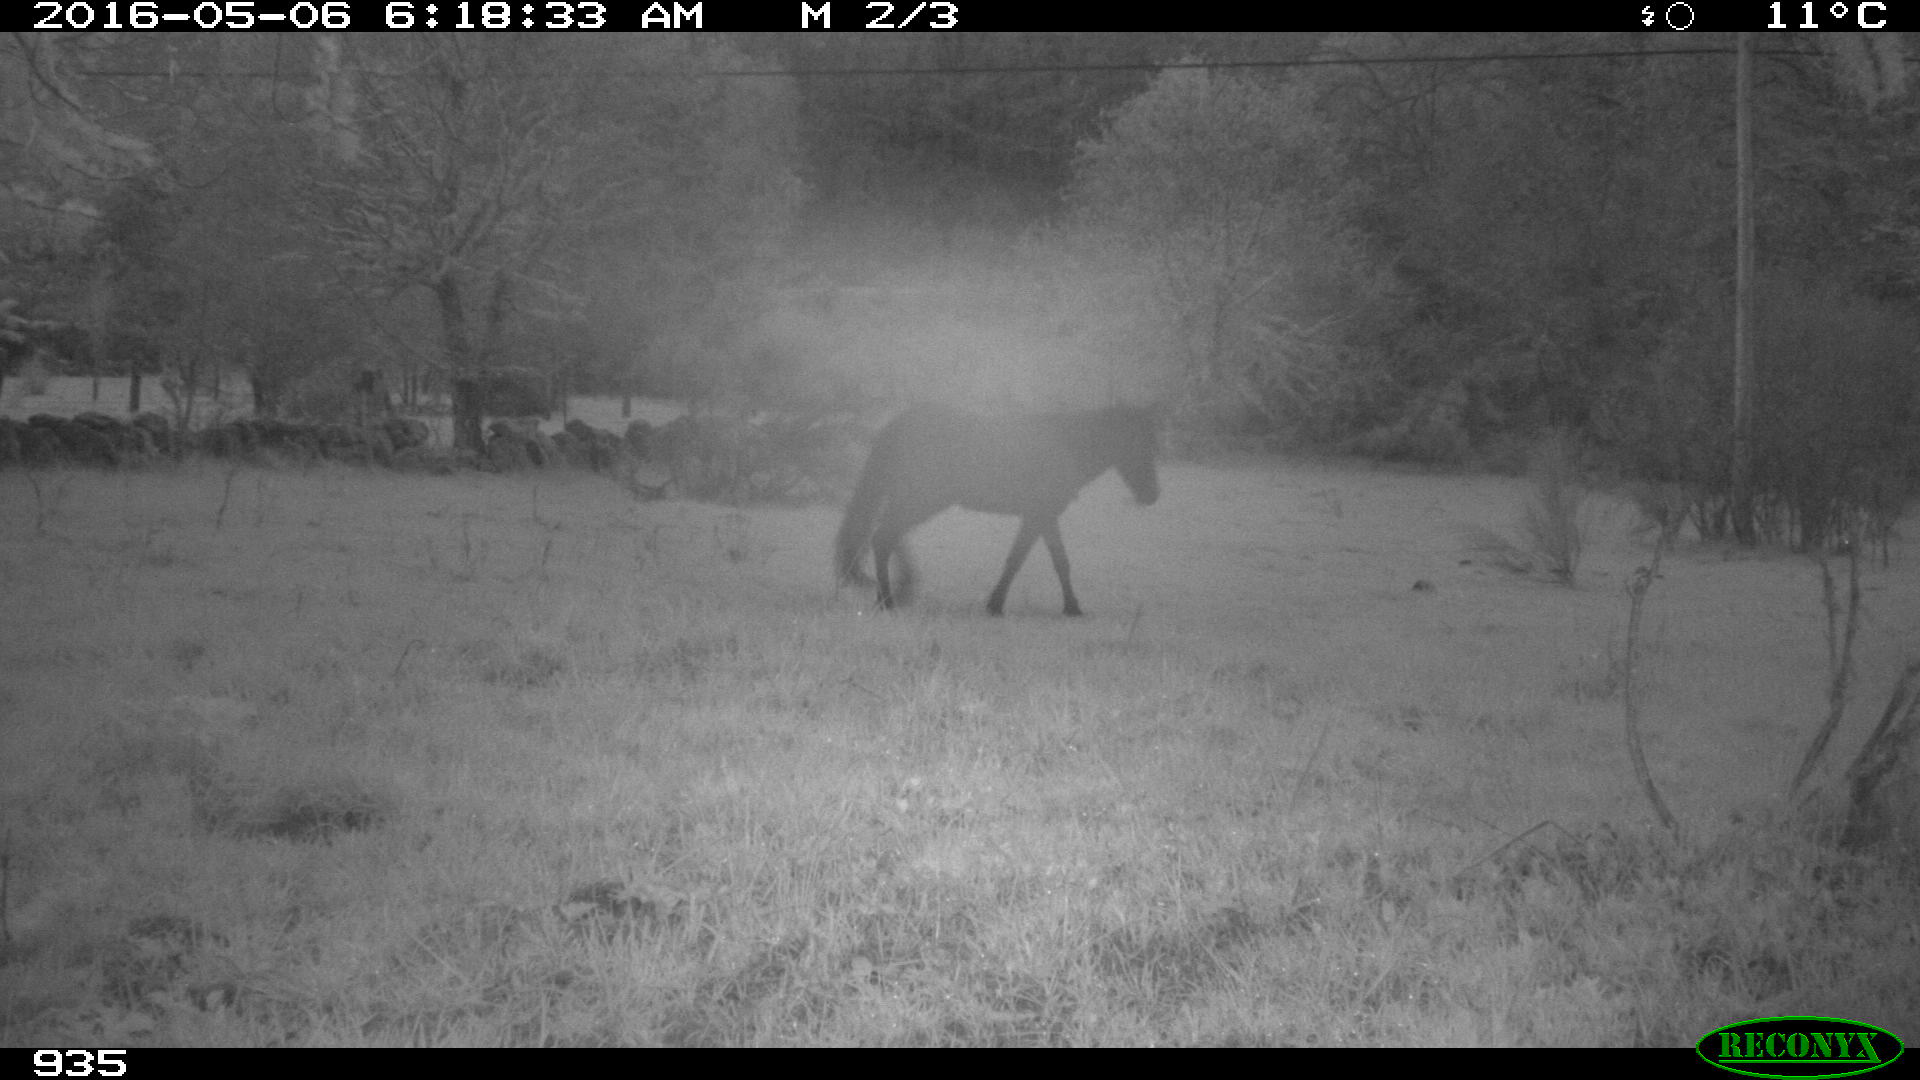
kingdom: Animalia
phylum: Chordata
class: Mammalia
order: Perissodactyla
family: Equidae
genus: Equus
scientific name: Equus caballus
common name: Horse
